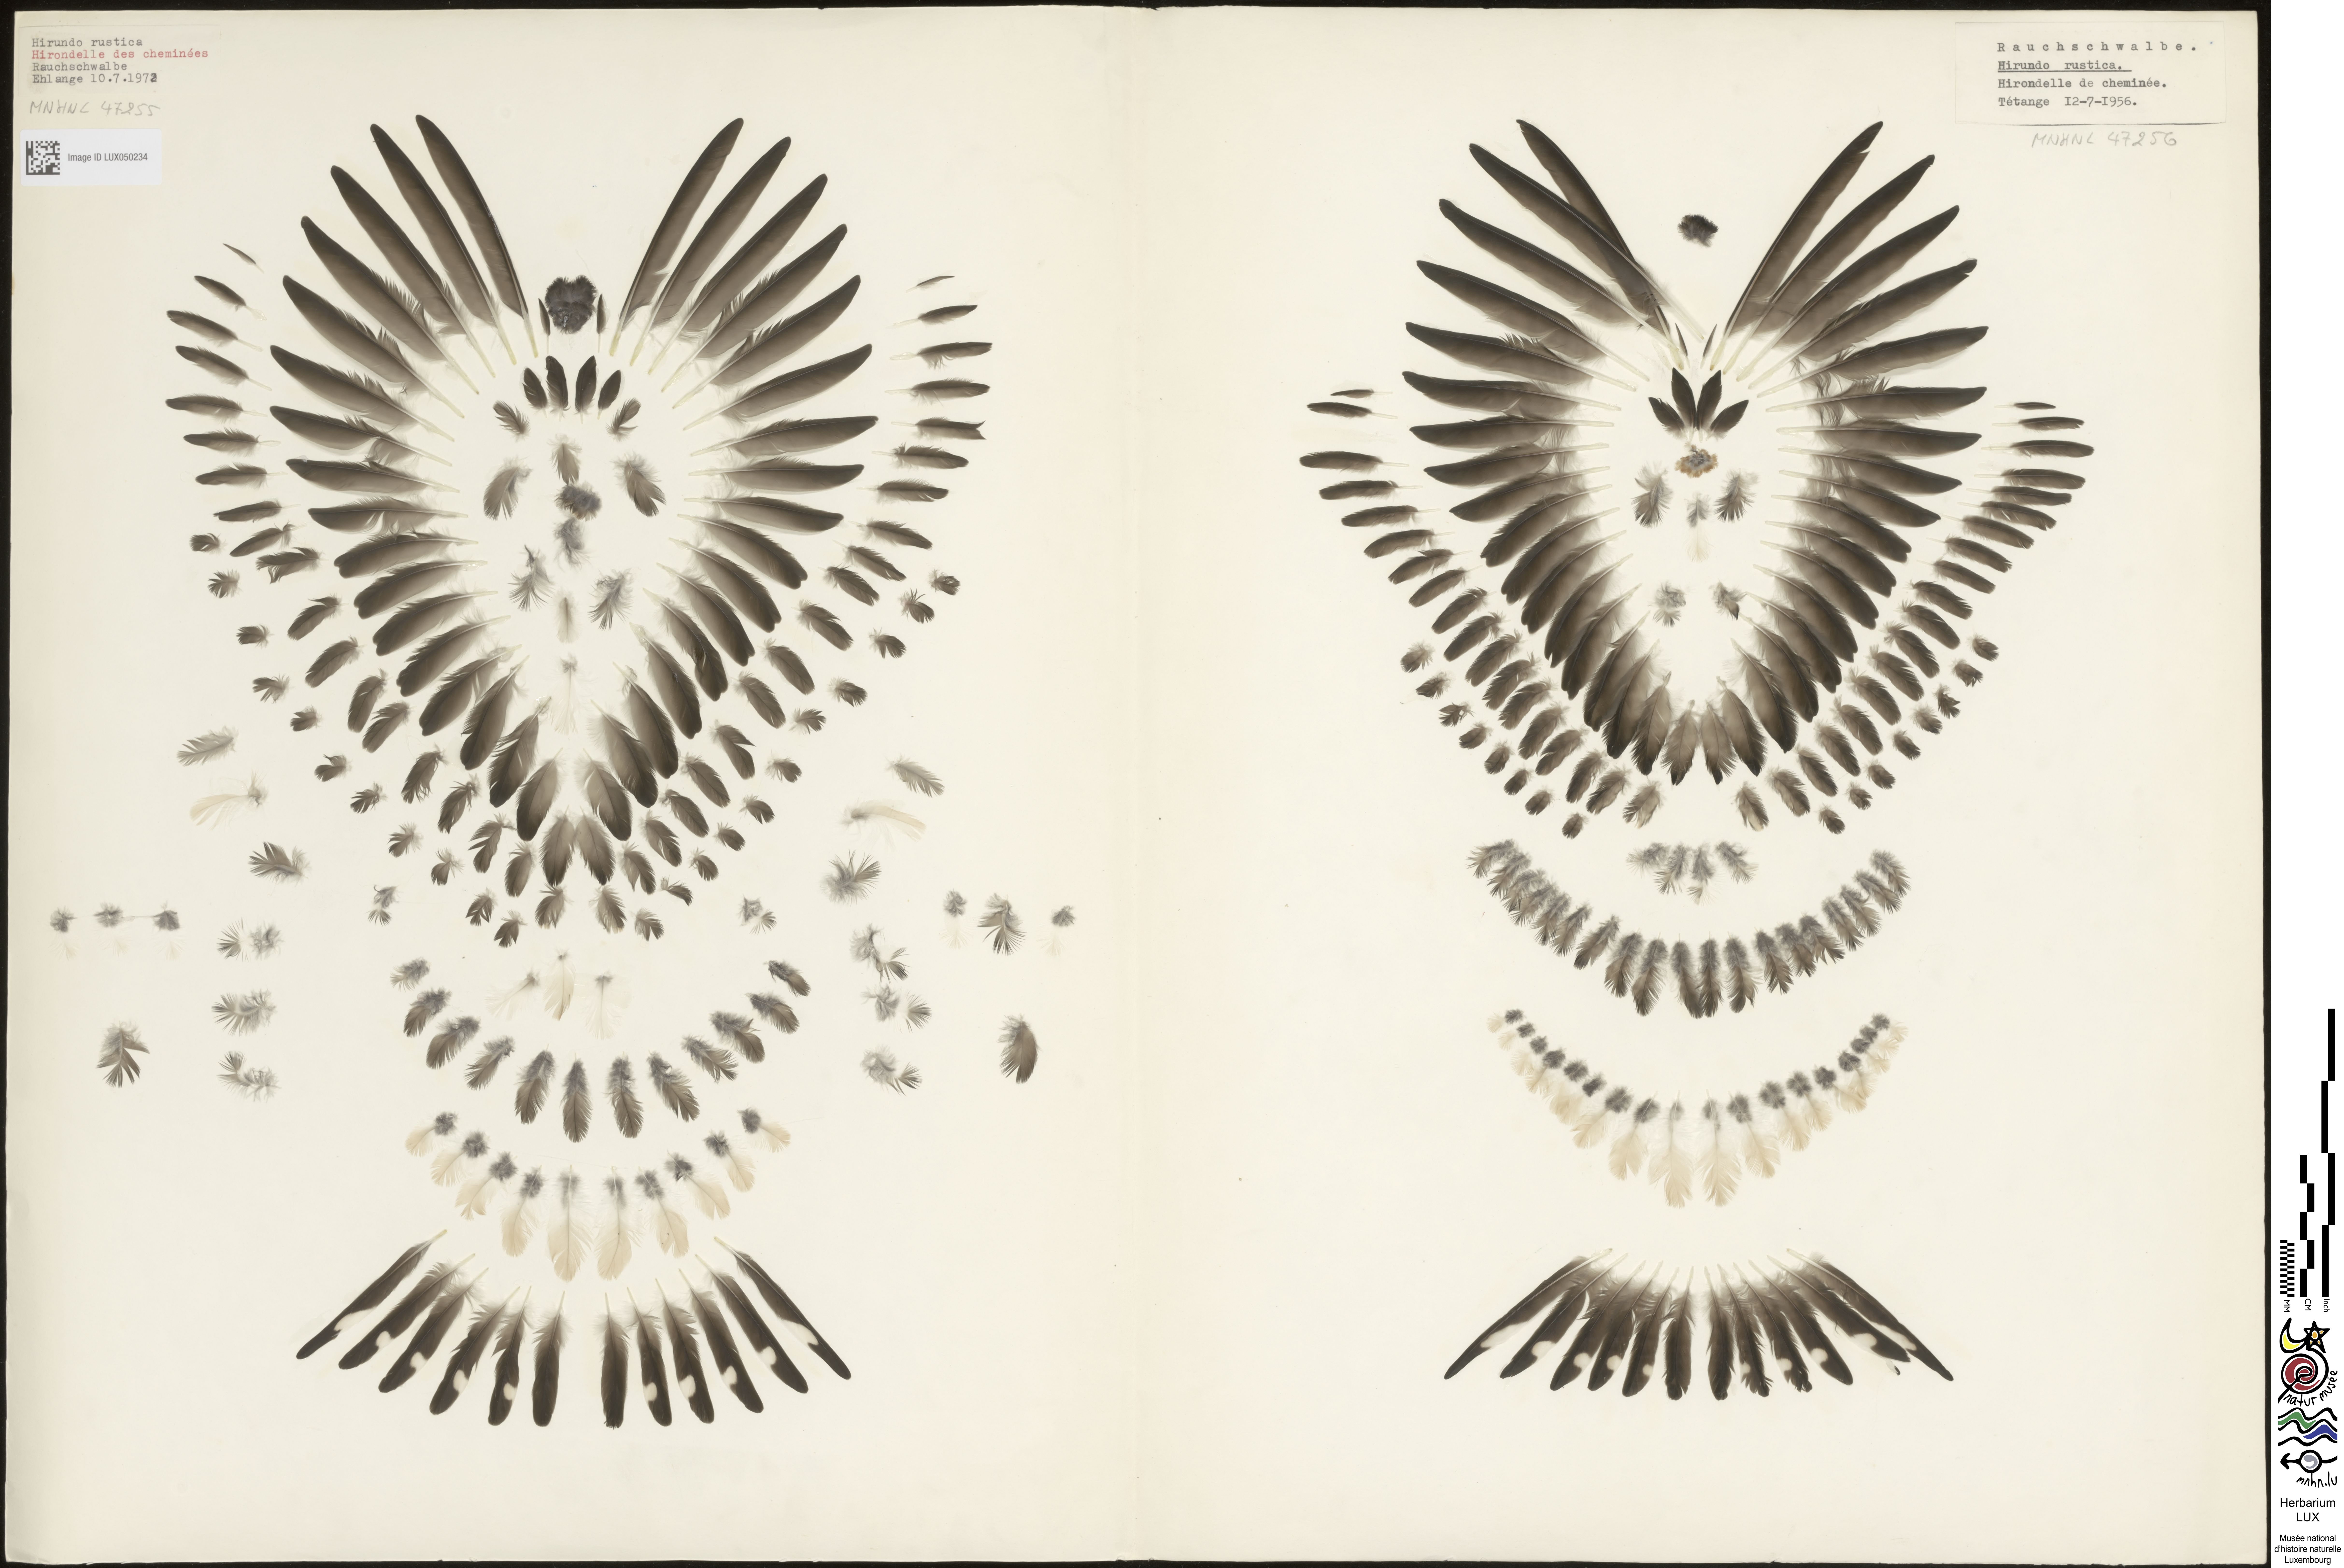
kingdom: Animalia
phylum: Chordata
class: Aves
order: Passeriformes
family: Hirundinidae
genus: Hirundo
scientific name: Hirundo rustica
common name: Barn swallow
